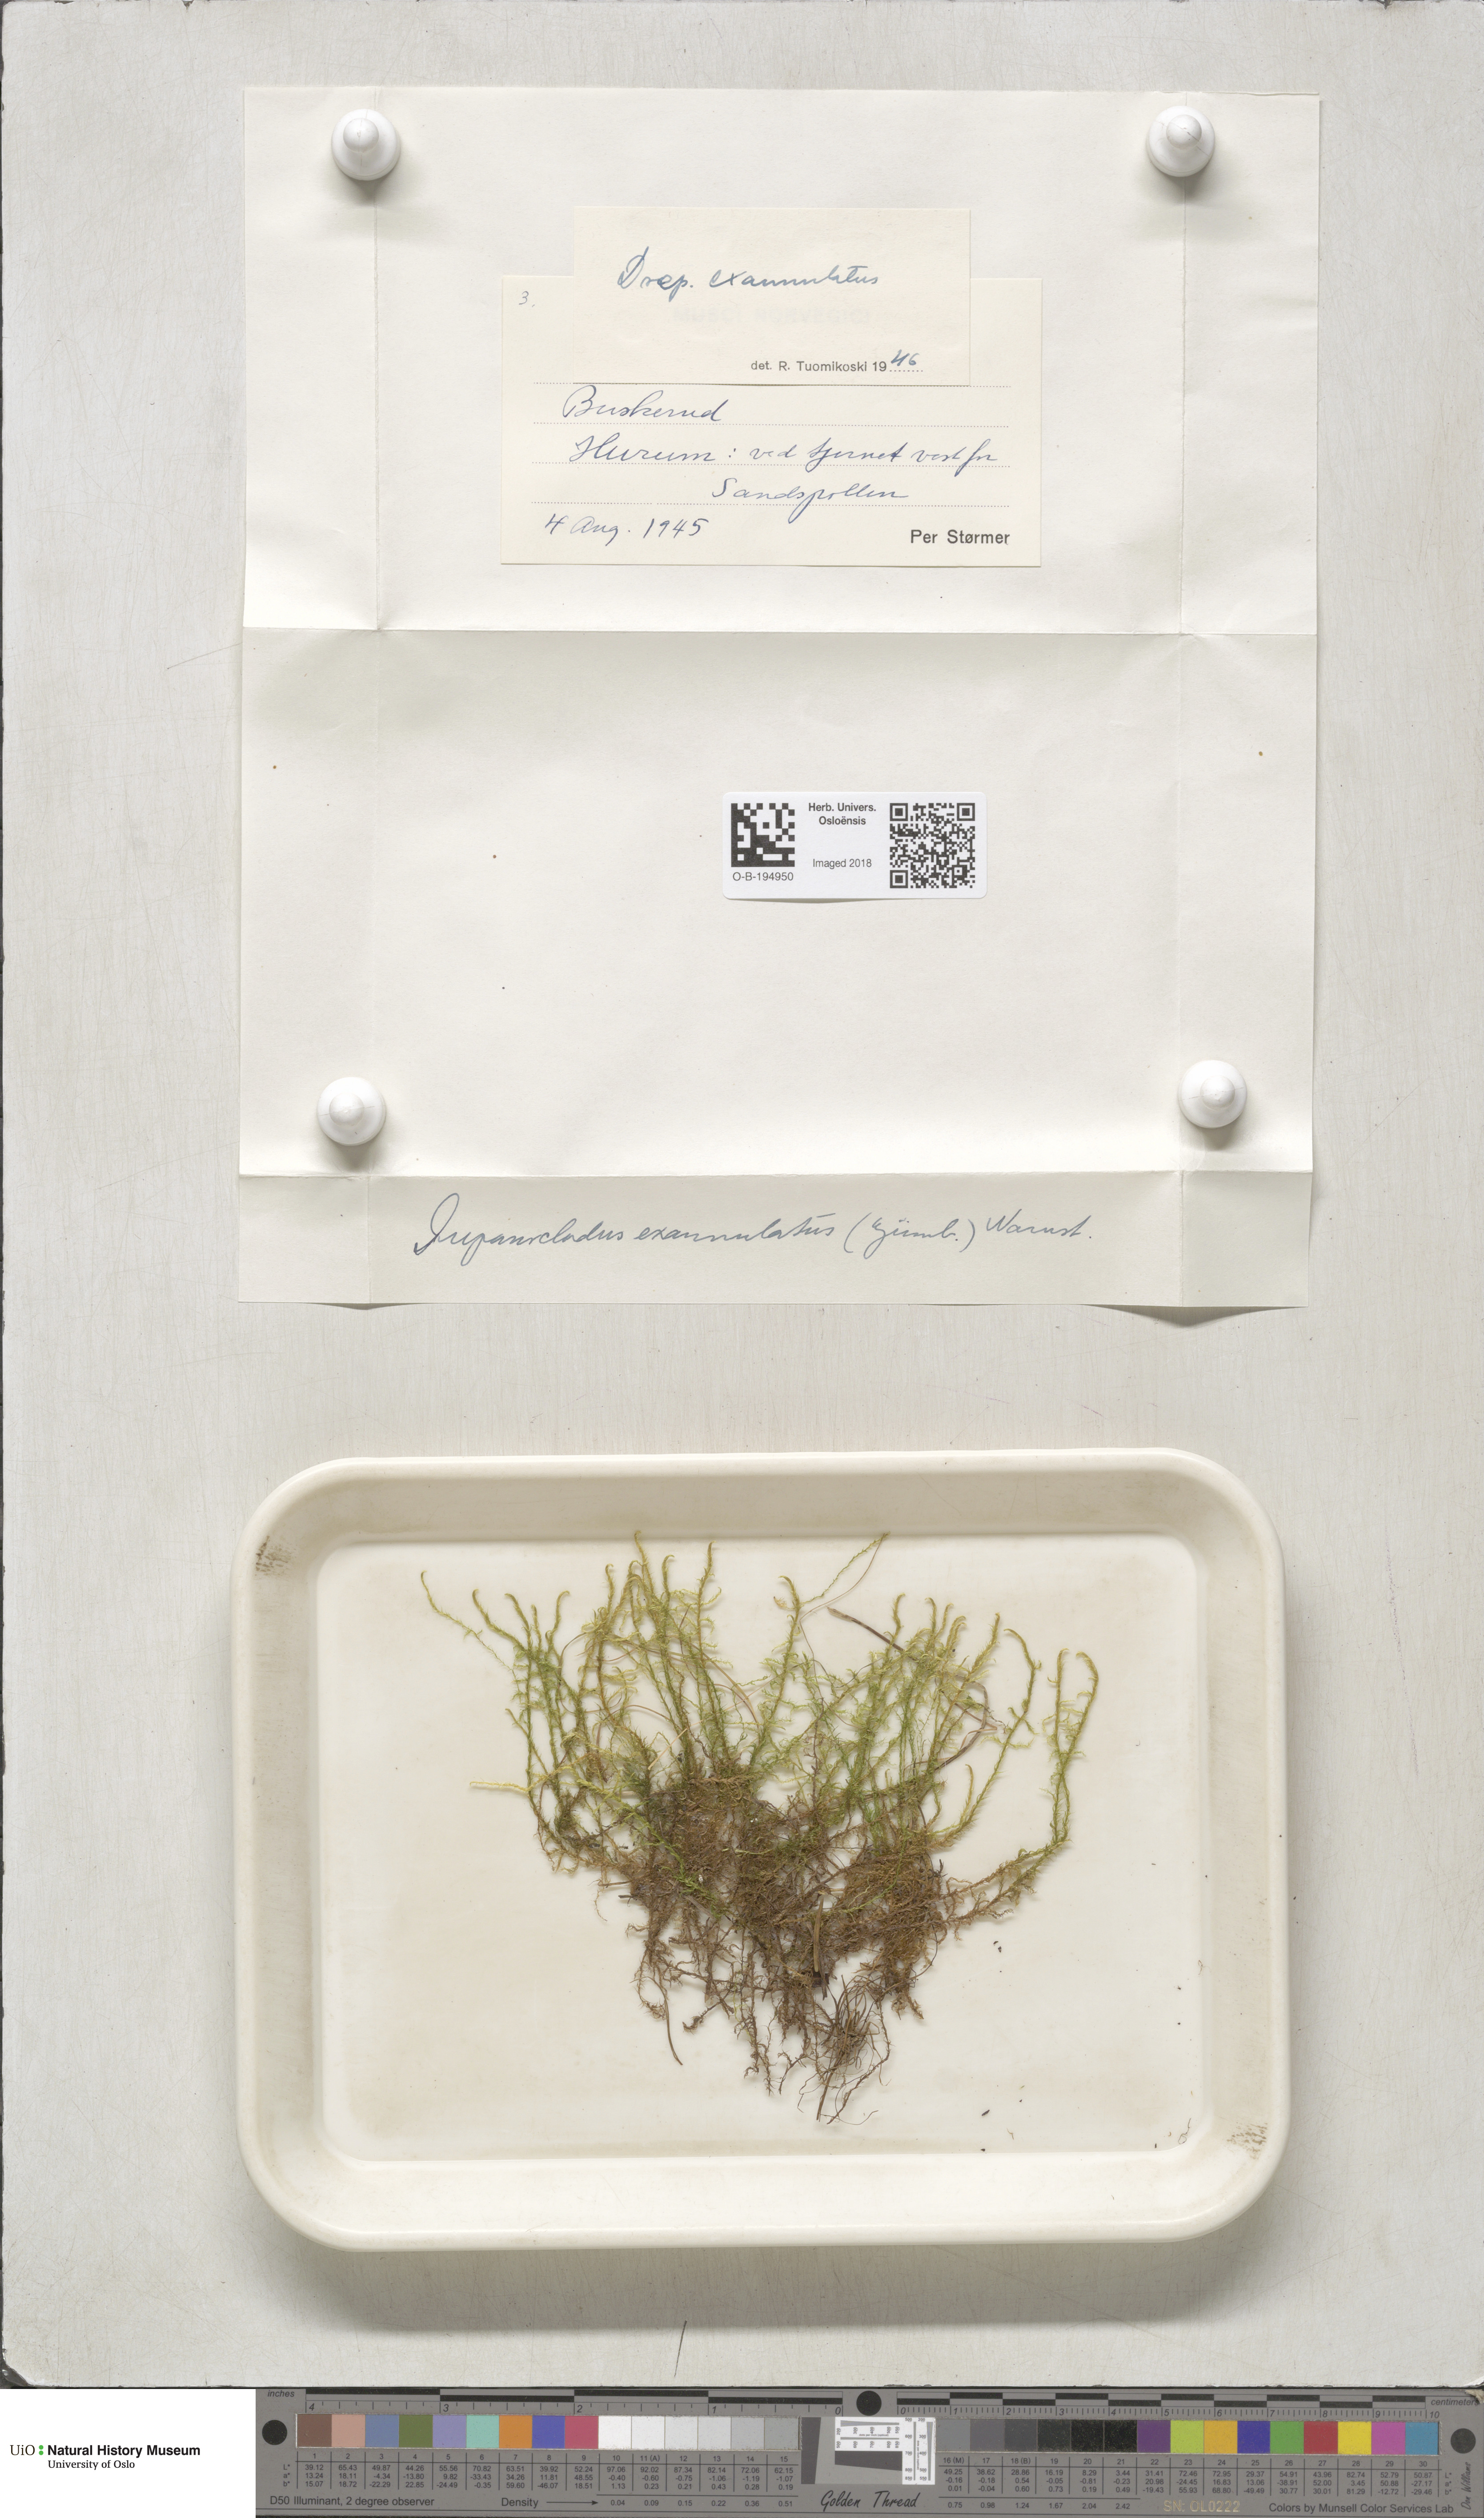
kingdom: Plantae
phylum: Bryophyta
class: Bryopsida
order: Hypnales
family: Calliergonaceae
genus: Sarmentypnum
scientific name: Sarmentypnum exannulatum
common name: Ringless spoon moss
